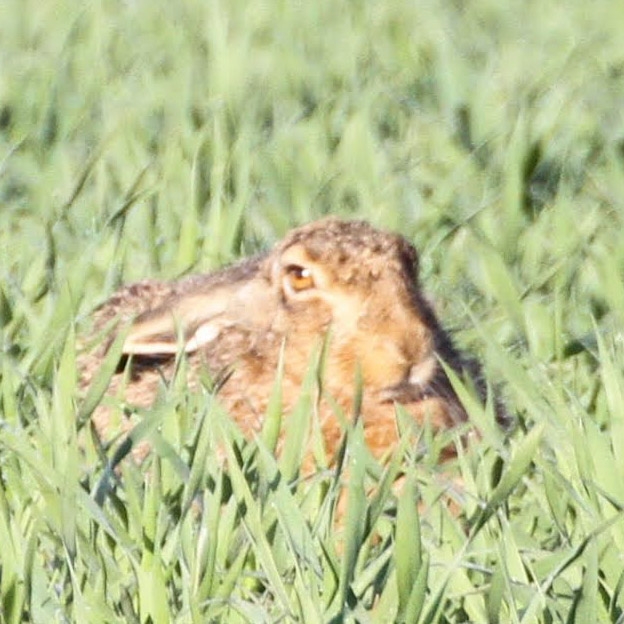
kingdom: Animalia
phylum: Chordata
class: Mammalia
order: Lagomorpha
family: Leporidae
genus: Lepus
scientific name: Lepus europaeus
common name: Hare
